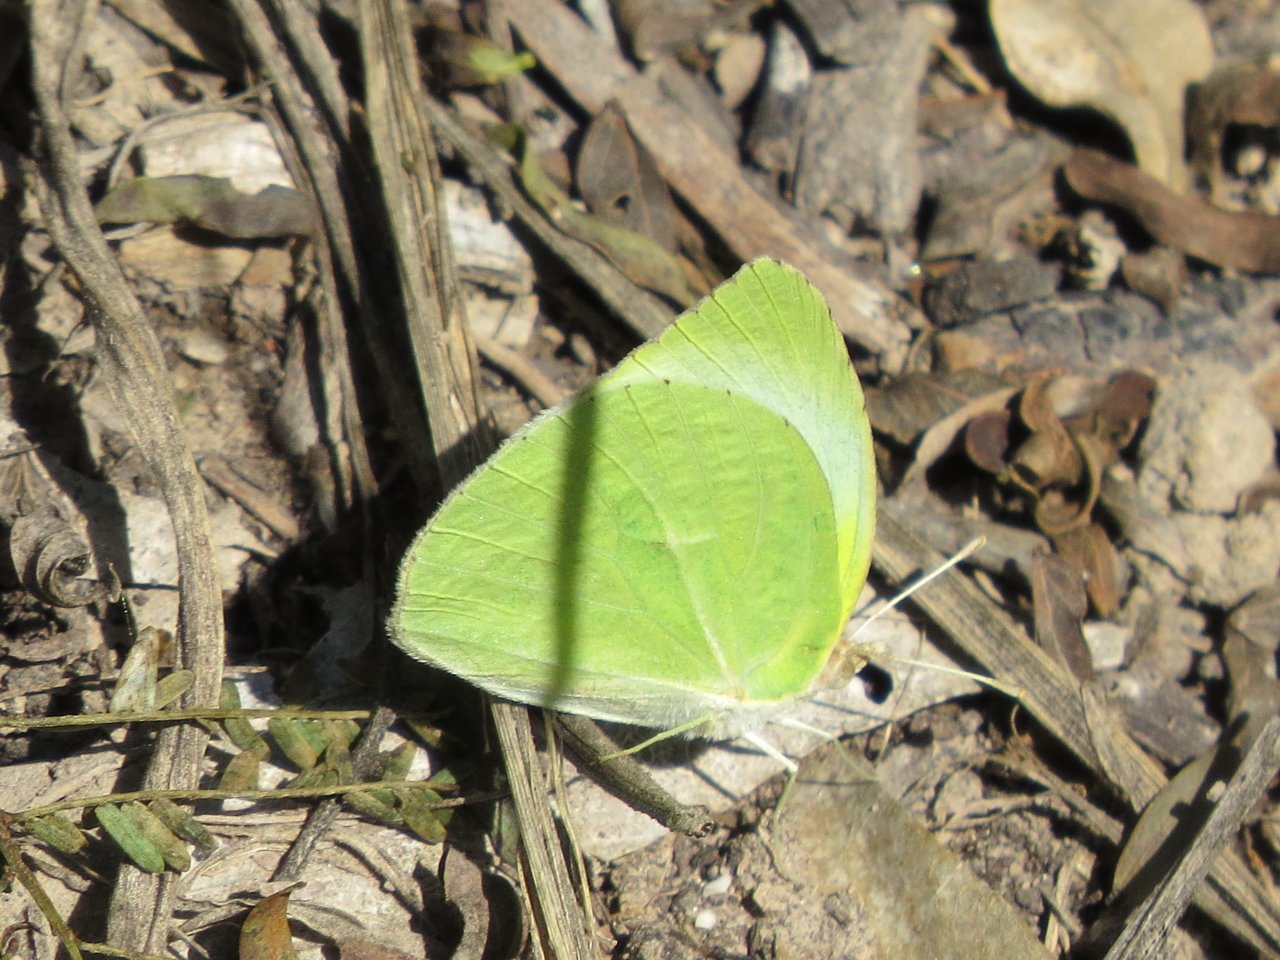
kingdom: Animalia
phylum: Arthropoda
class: Insecta
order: Lepidoptera
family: Pieridae
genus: Kricogonia
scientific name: Kricogonia lyside
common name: Lyside Sulphur
